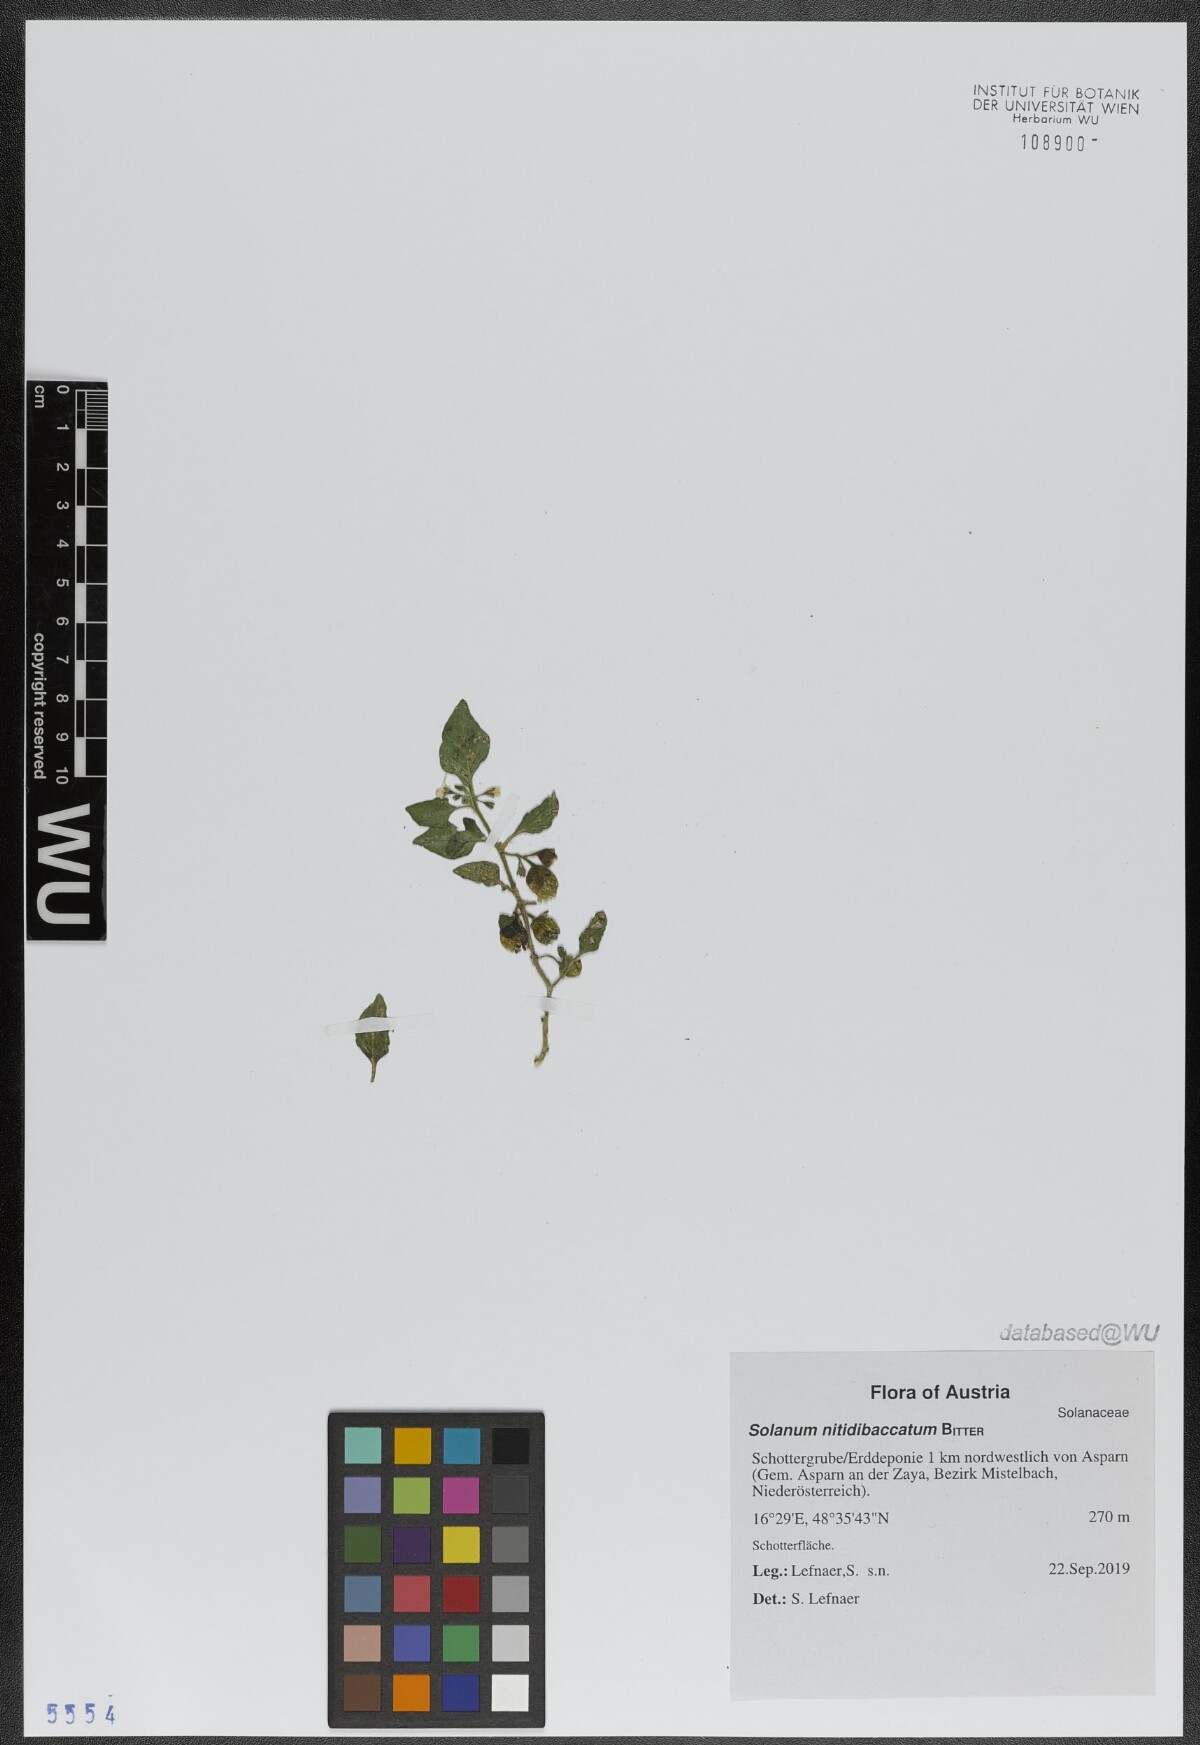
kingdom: Plantae
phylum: Tracheophyta
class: Magnoliopsida
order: Solanales
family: Solanaceae
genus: Solanum
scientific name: Solanum nitidibaccatum
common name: Hairy nightshade
